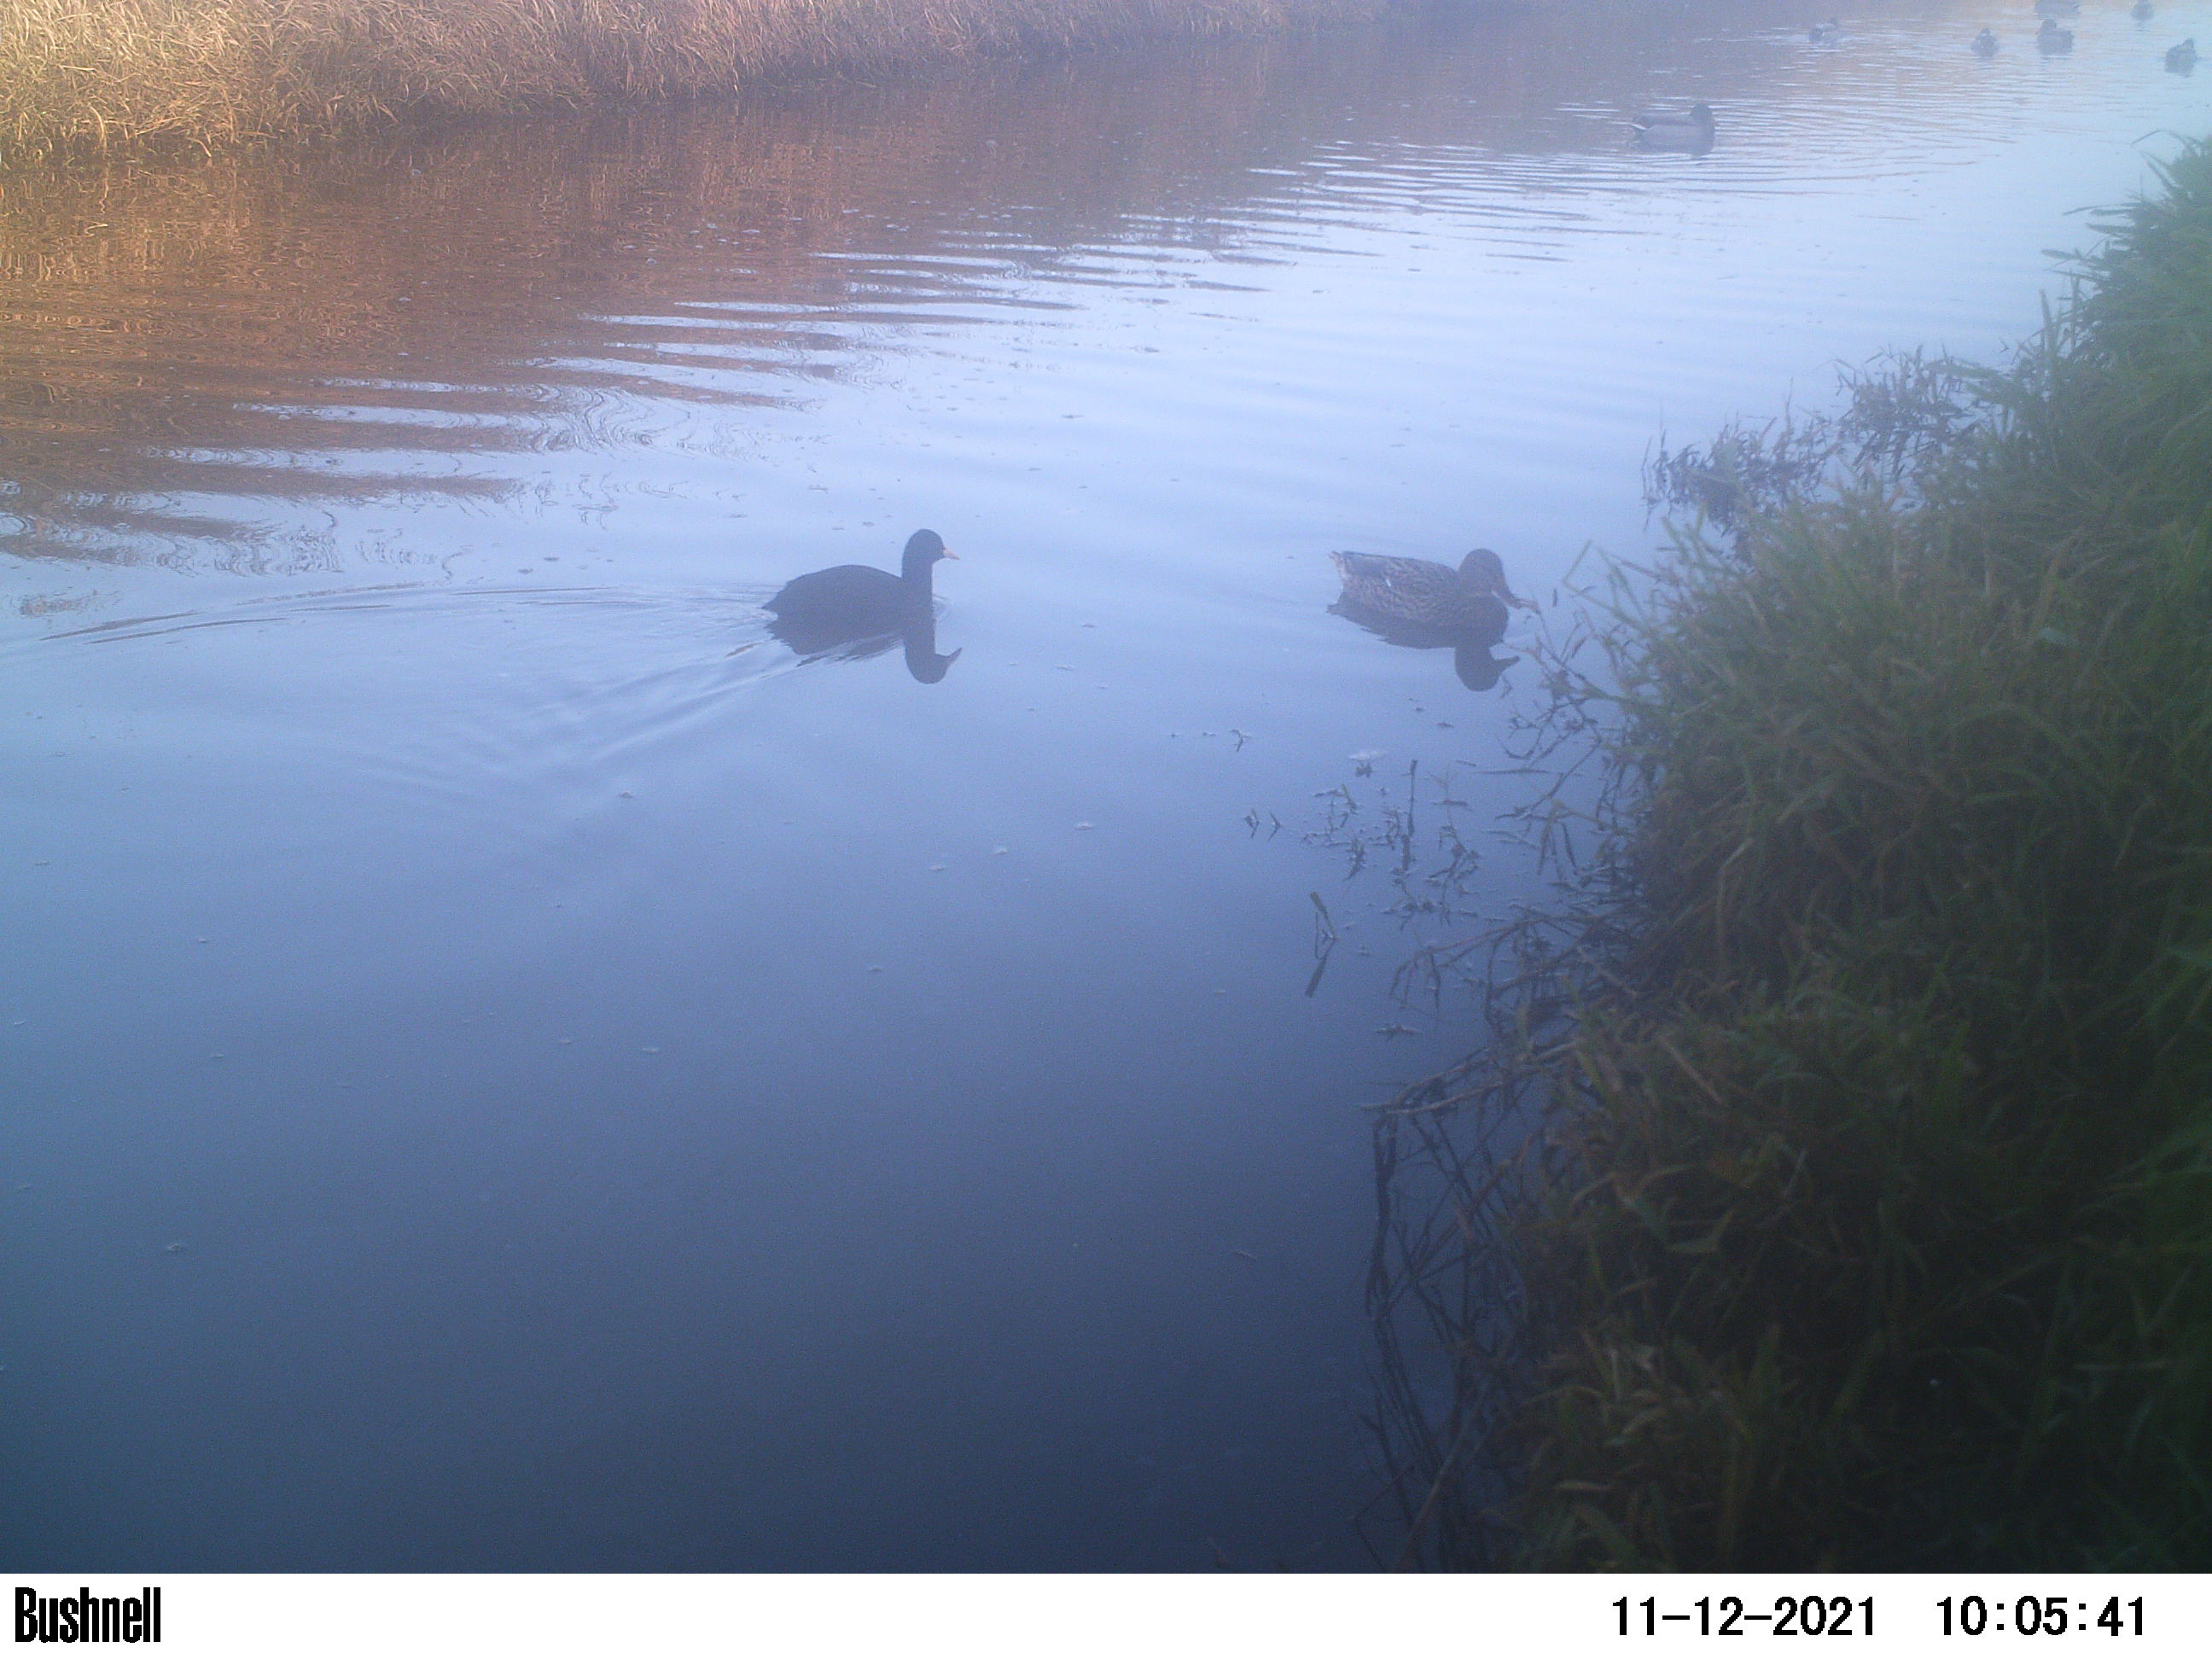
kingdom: Animalia
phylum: Chordata
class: Aves
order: Gruiformes
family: Rallidae
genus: Fulica
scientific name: Fulica atra
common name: Eurasian coot
